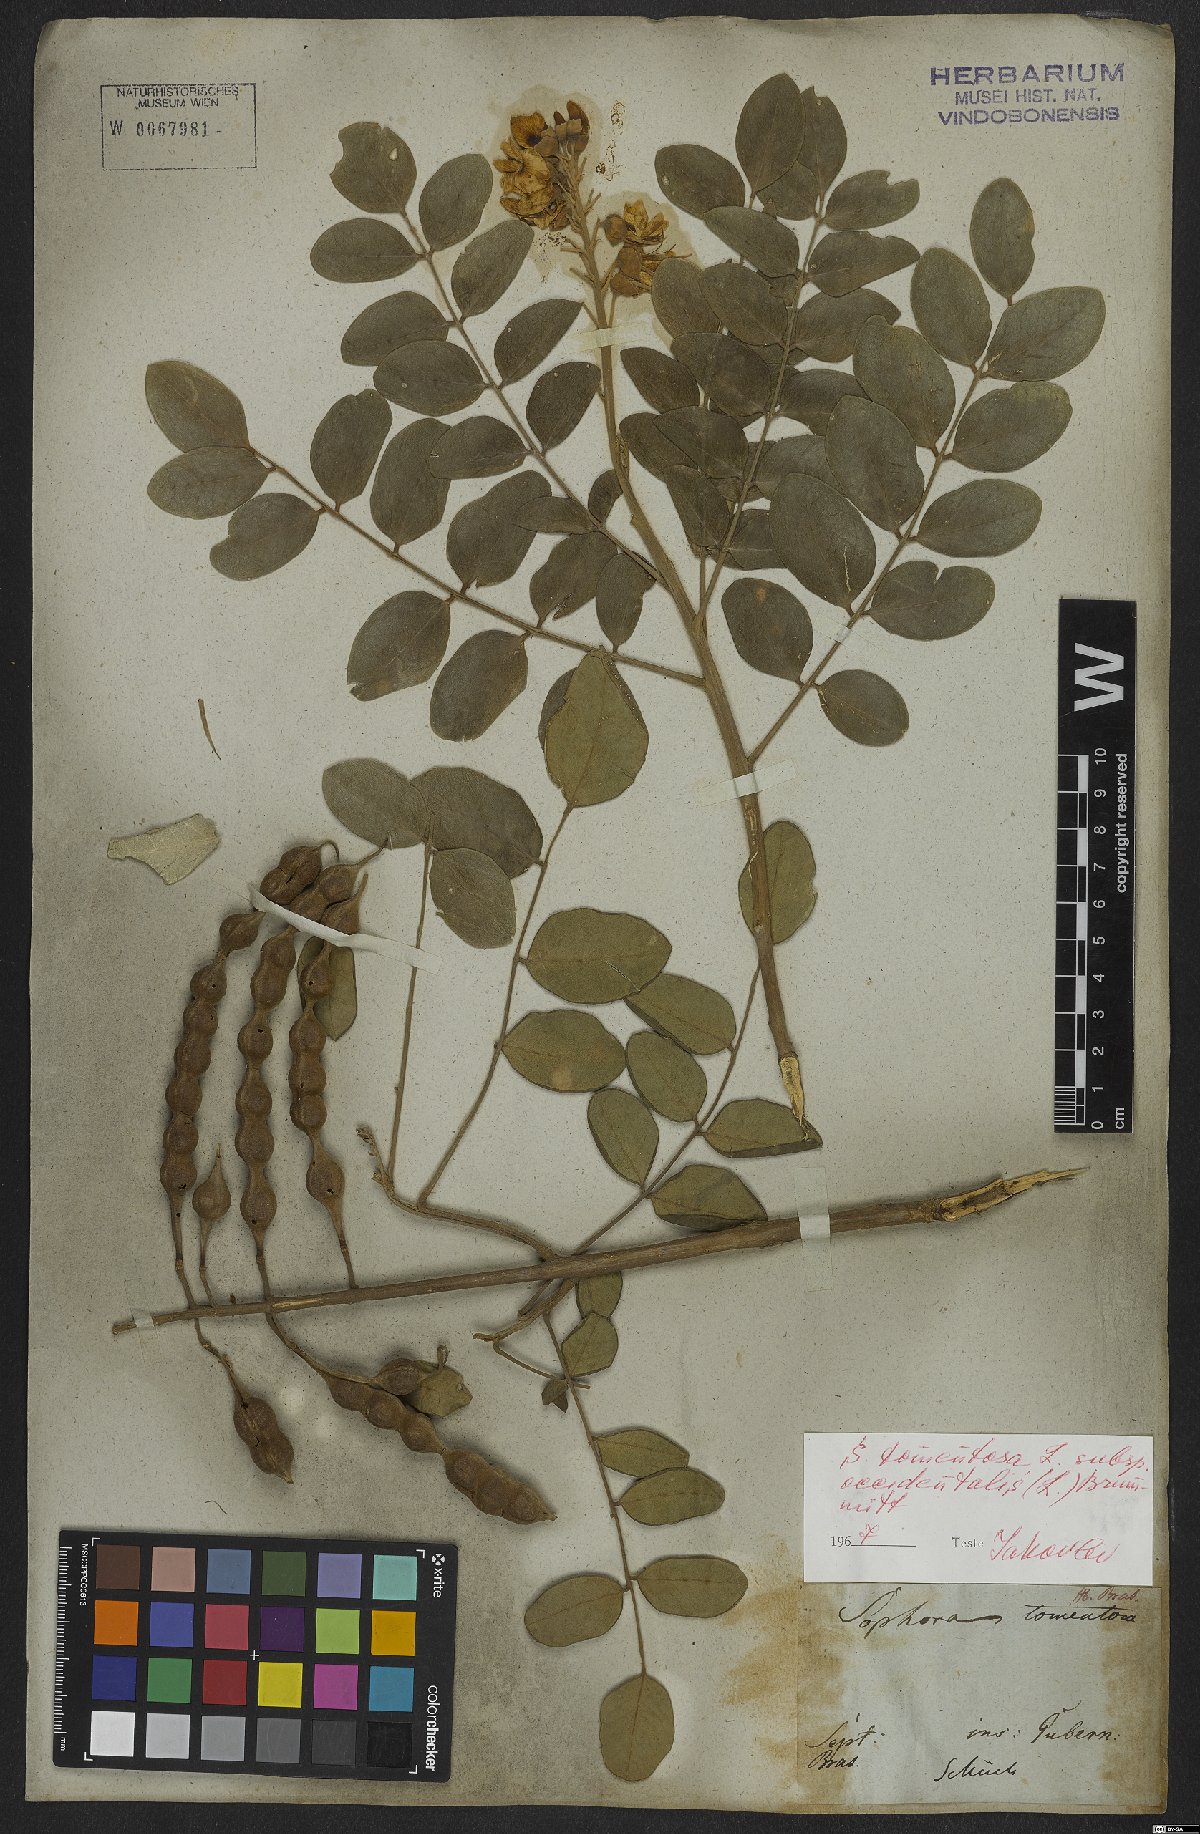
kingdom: Plantae
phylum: Tracheophyta
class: Magnoliopsida
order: Fabales
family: Fabaceae
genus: Sophora
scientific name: Sophora tomentosa
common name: Yellow necklacepod
